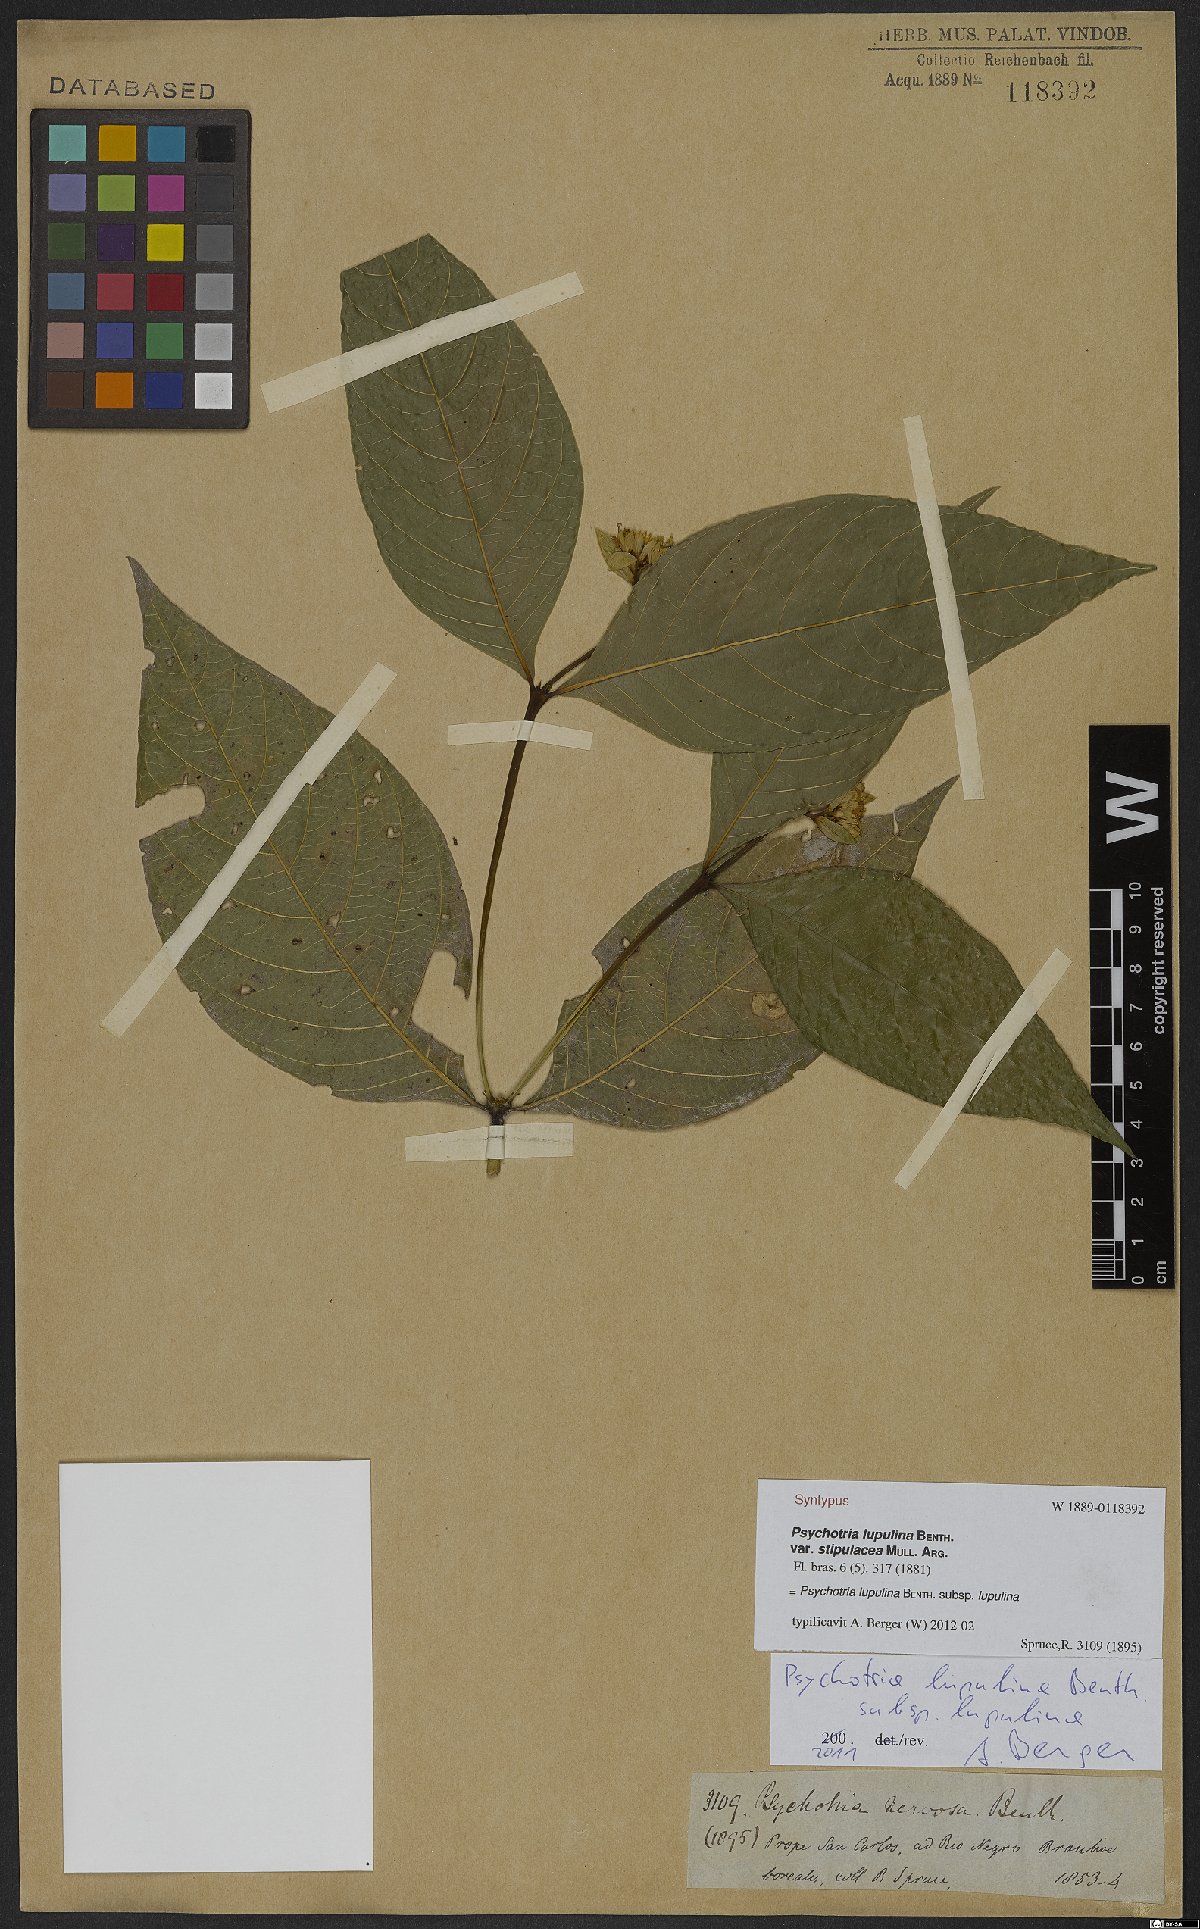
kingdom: Plantae
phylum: Tracheophyta
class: Magnoliopsida
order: Gentianales
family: Rubiaceae
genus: Palicourea
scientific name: Palicourea justiciifolia
